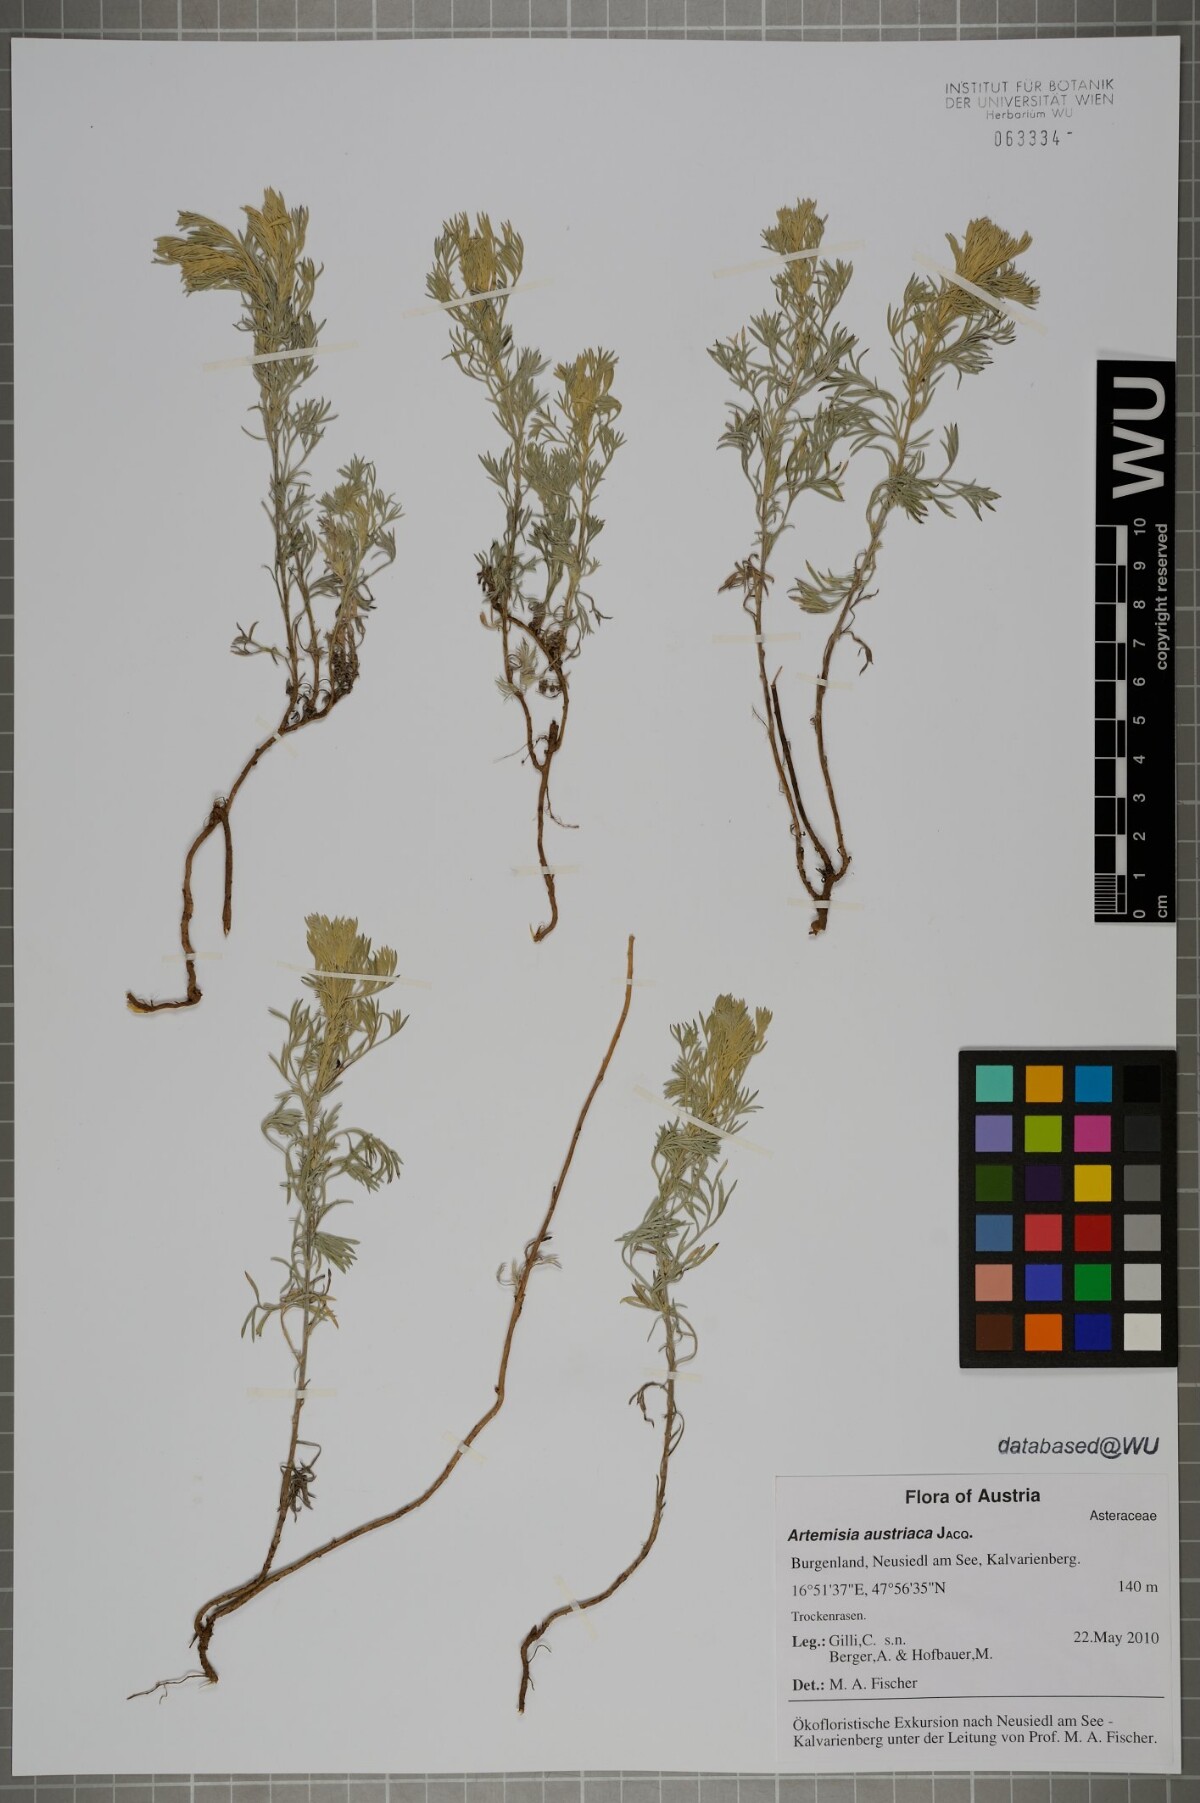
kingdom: Plantae
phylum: Tracheophyta
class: Magnoliopsida
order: Asterales
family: Asteraceae
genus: Artemisia
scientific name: Artemisia austriaca
